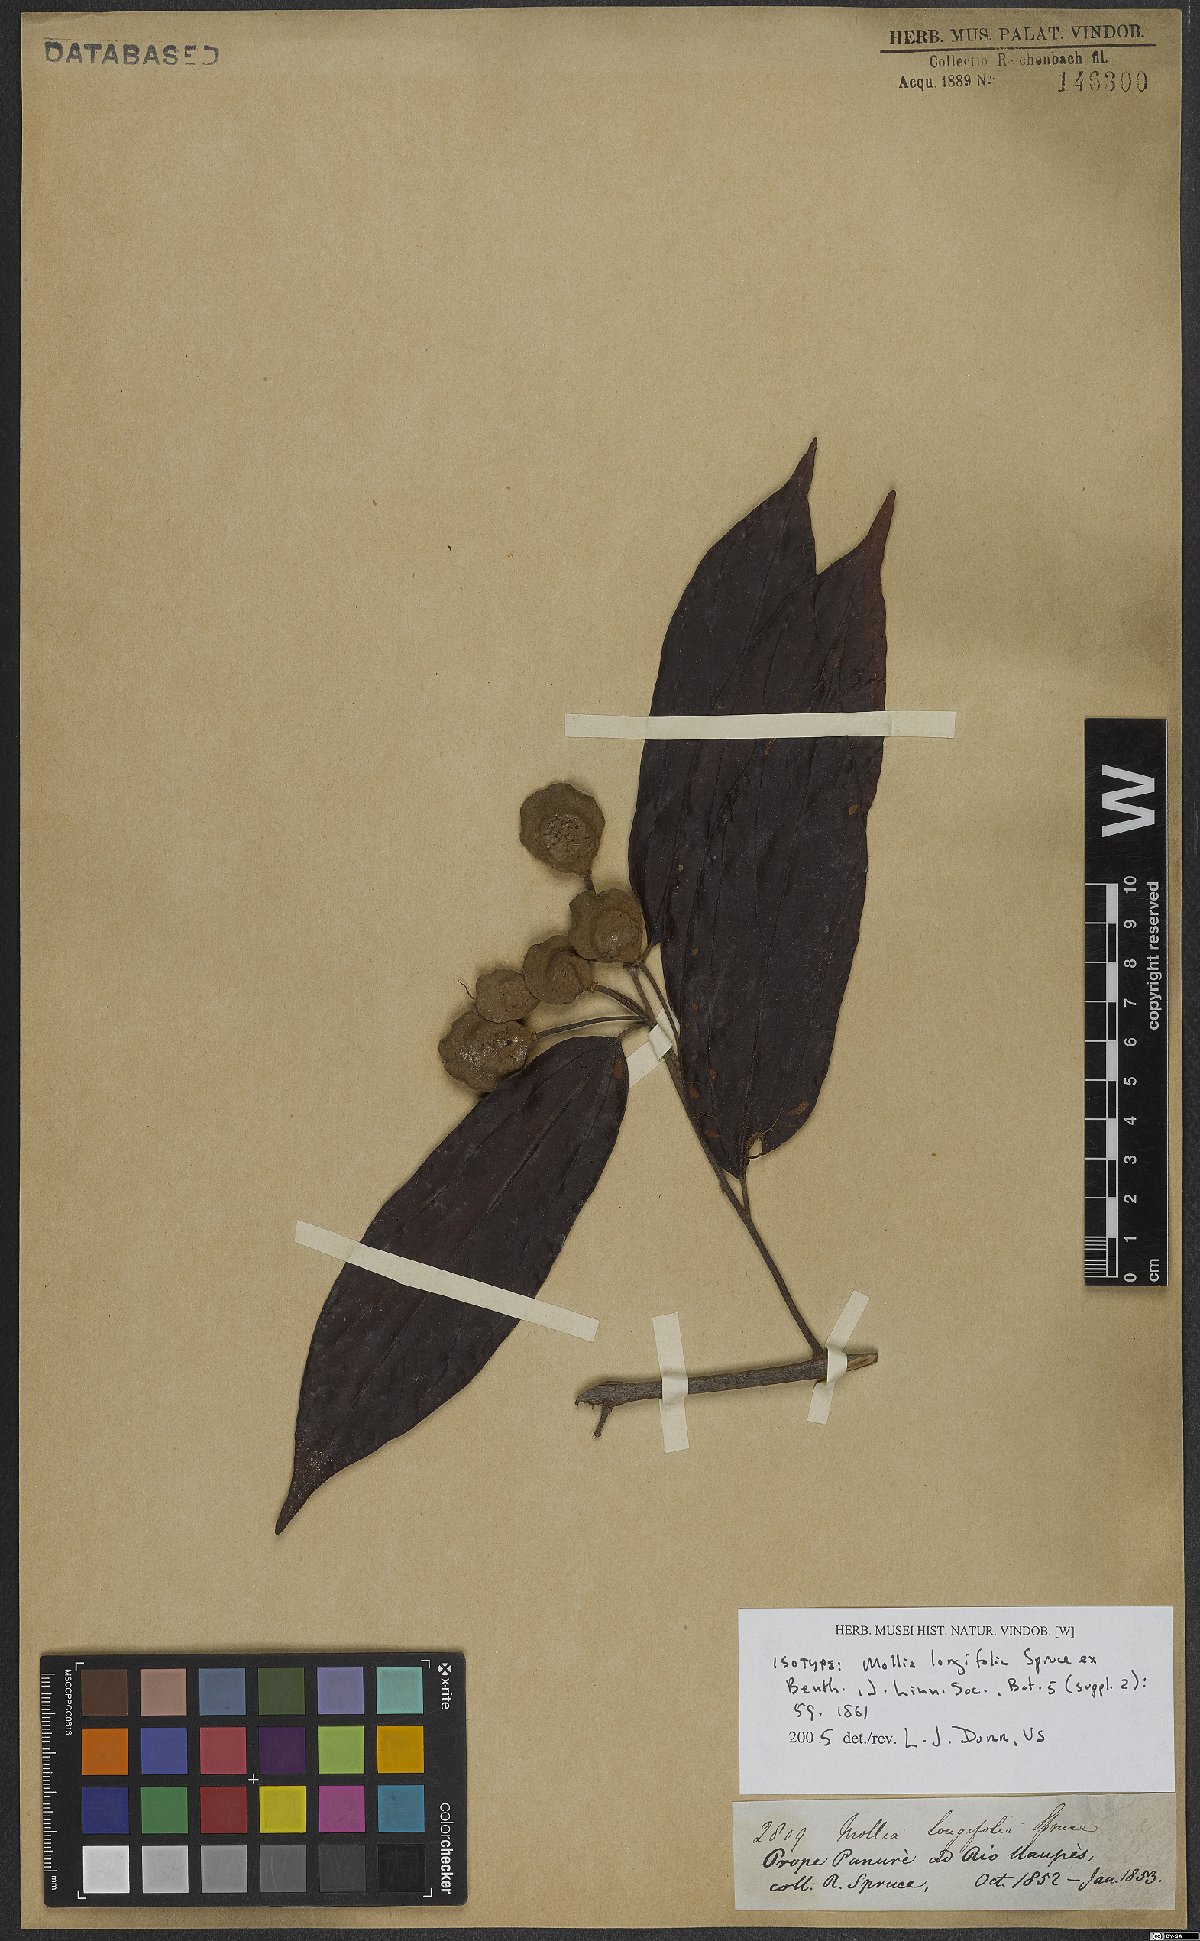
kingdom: Plantae
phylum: Tracheophyta
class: Magnoliopsida
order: Malvales
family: Malvaceae
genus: Mollia
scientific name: Mollia longifolia
